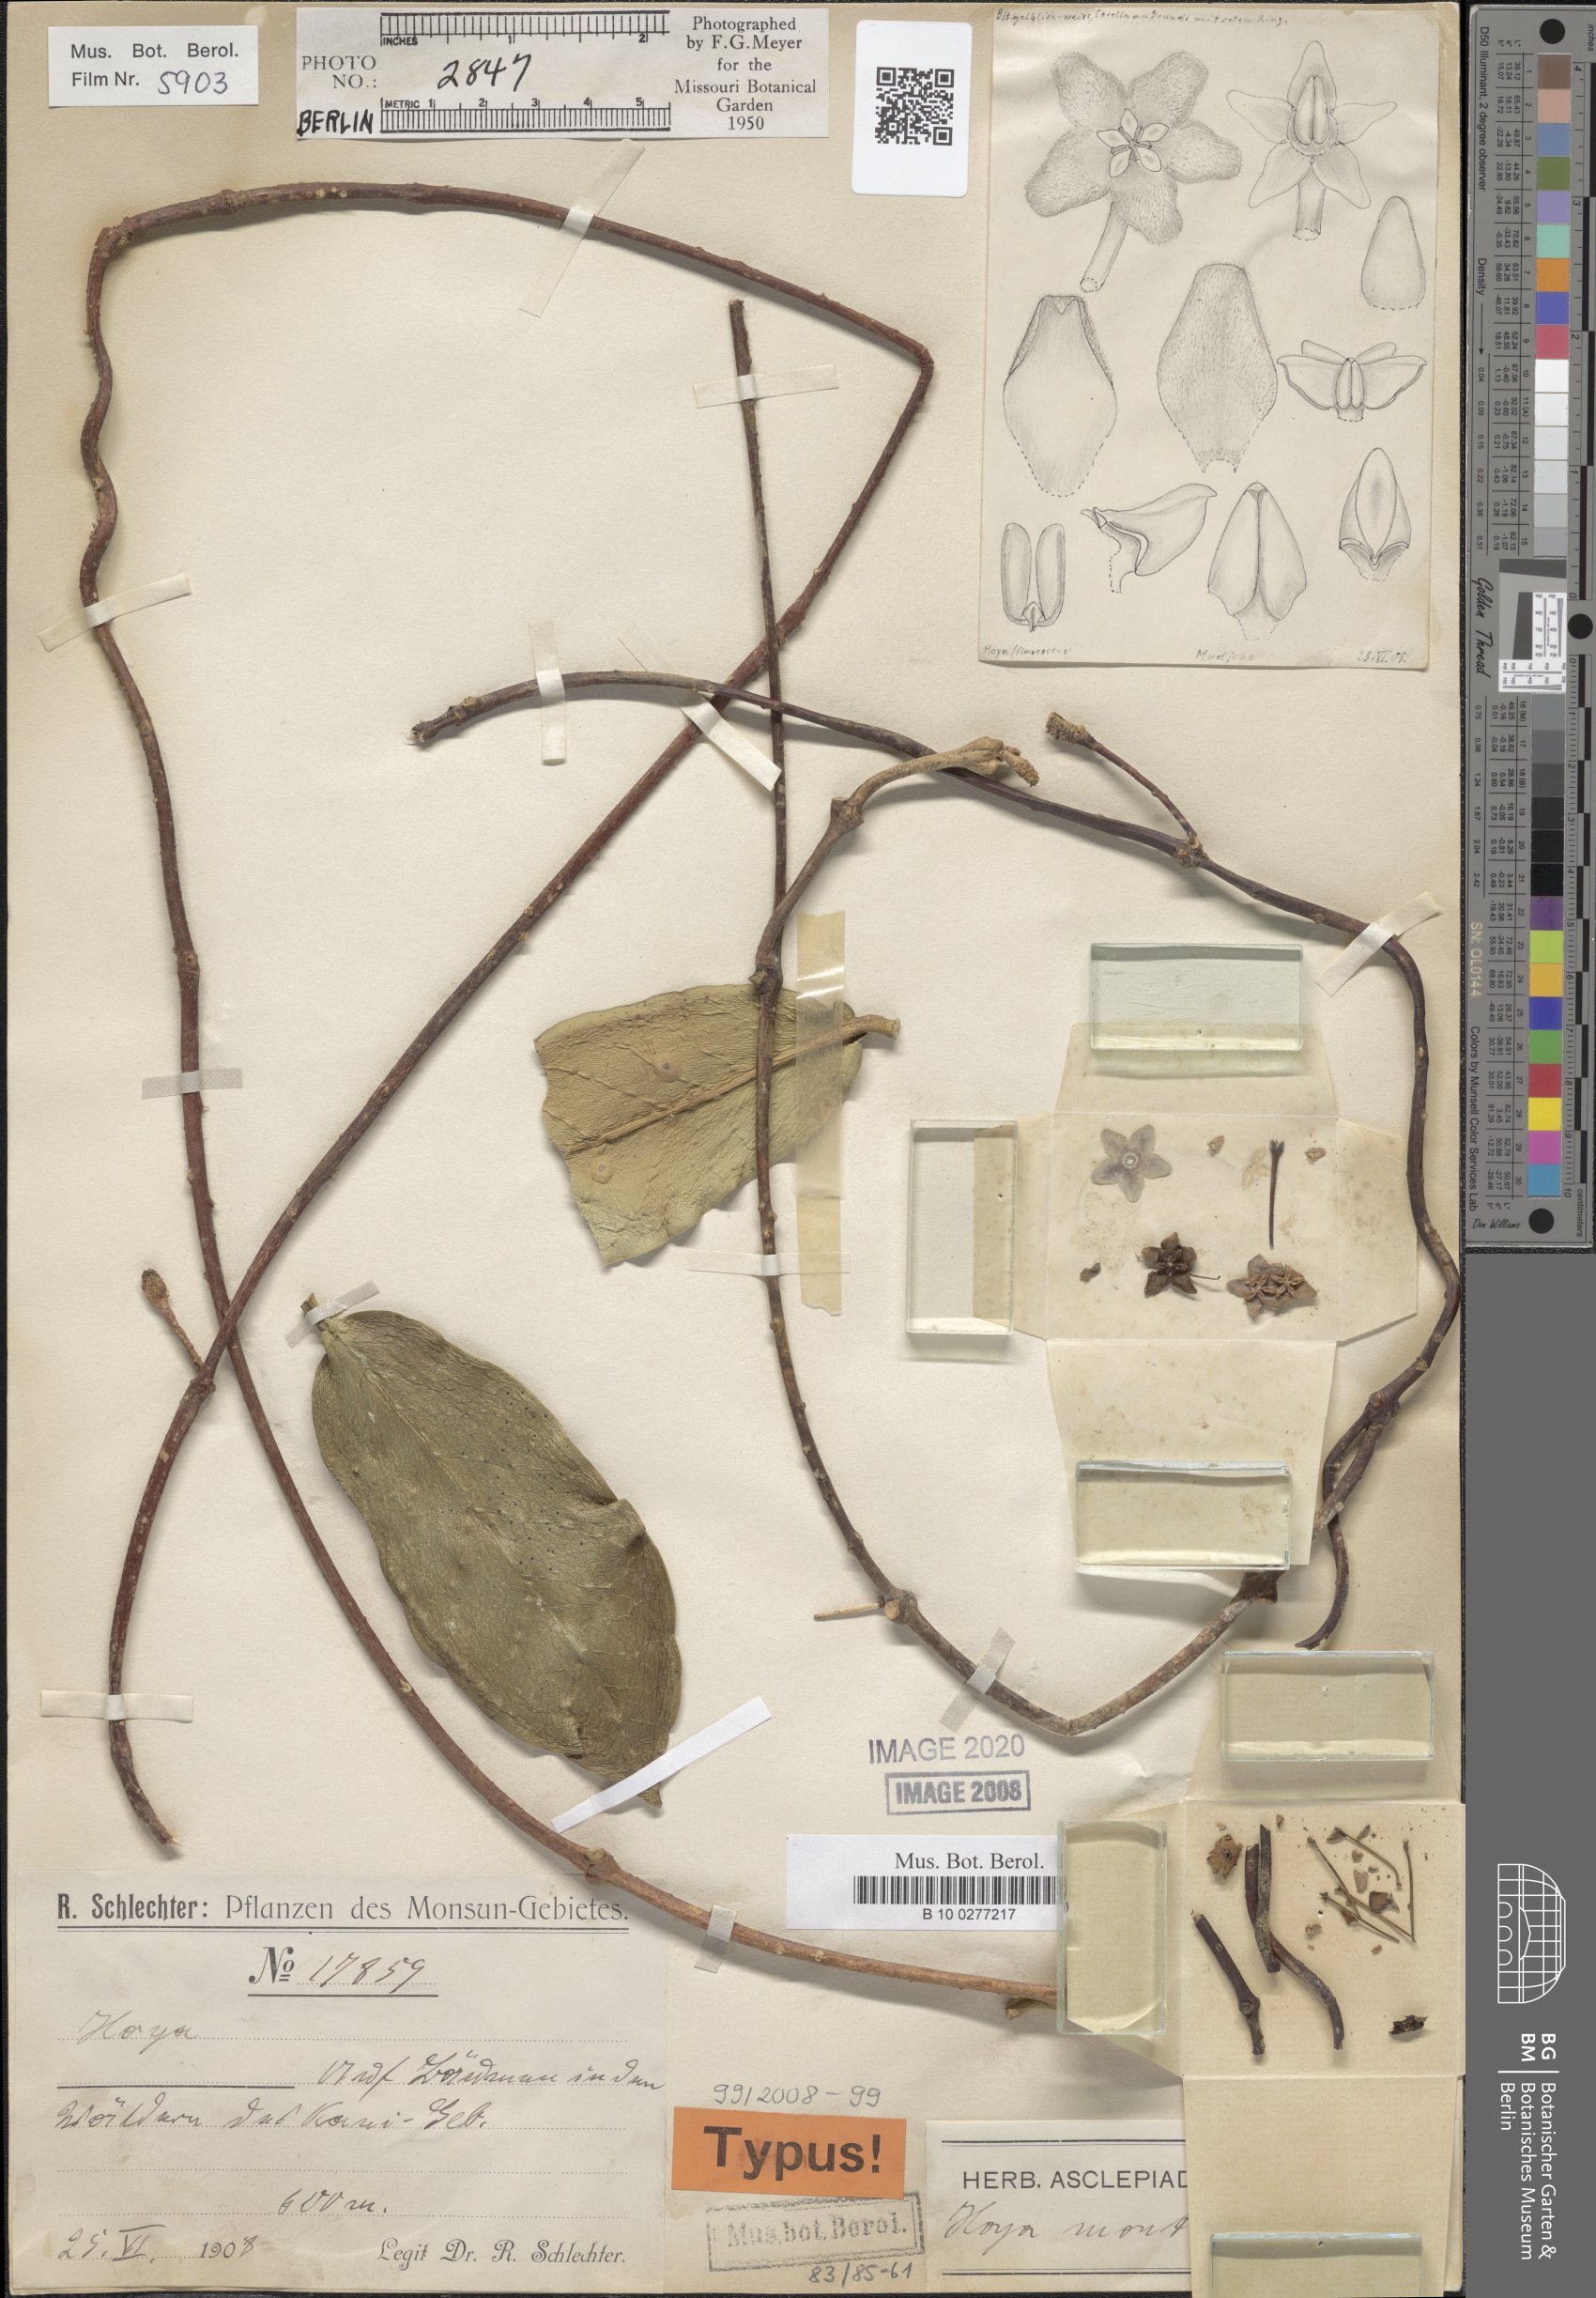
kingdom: Plantae
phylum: Tracheophyta
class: Magnoliopsida
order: Gentianales
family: Apocynaceae
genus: Hoya
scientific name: Hoya ischnopus
